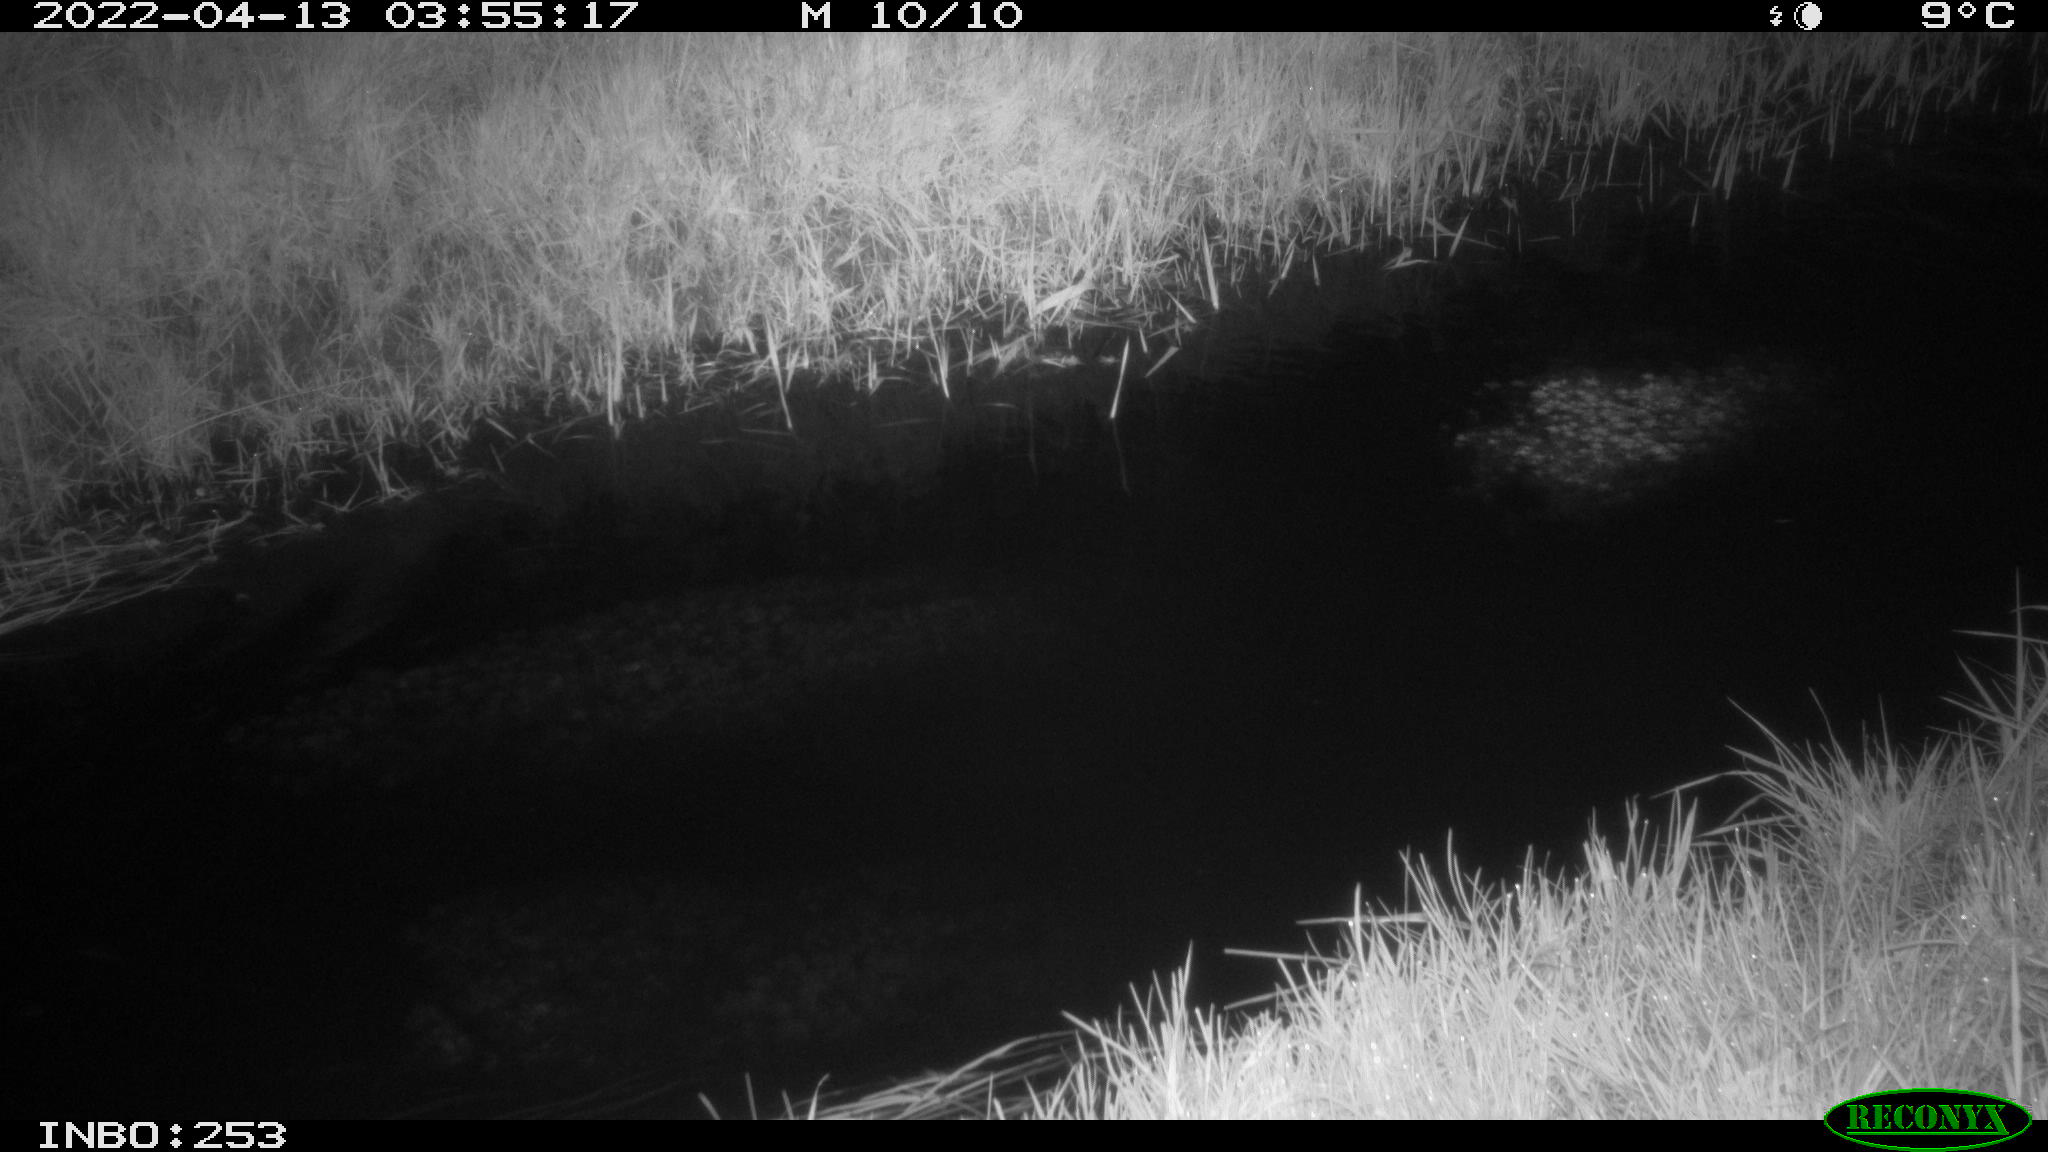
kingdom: Animalia
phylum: Chordata
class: Aves
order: Anseriformes
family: Anatidae
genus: Anas
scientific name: Anas platyrhynchos
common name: Mallard
